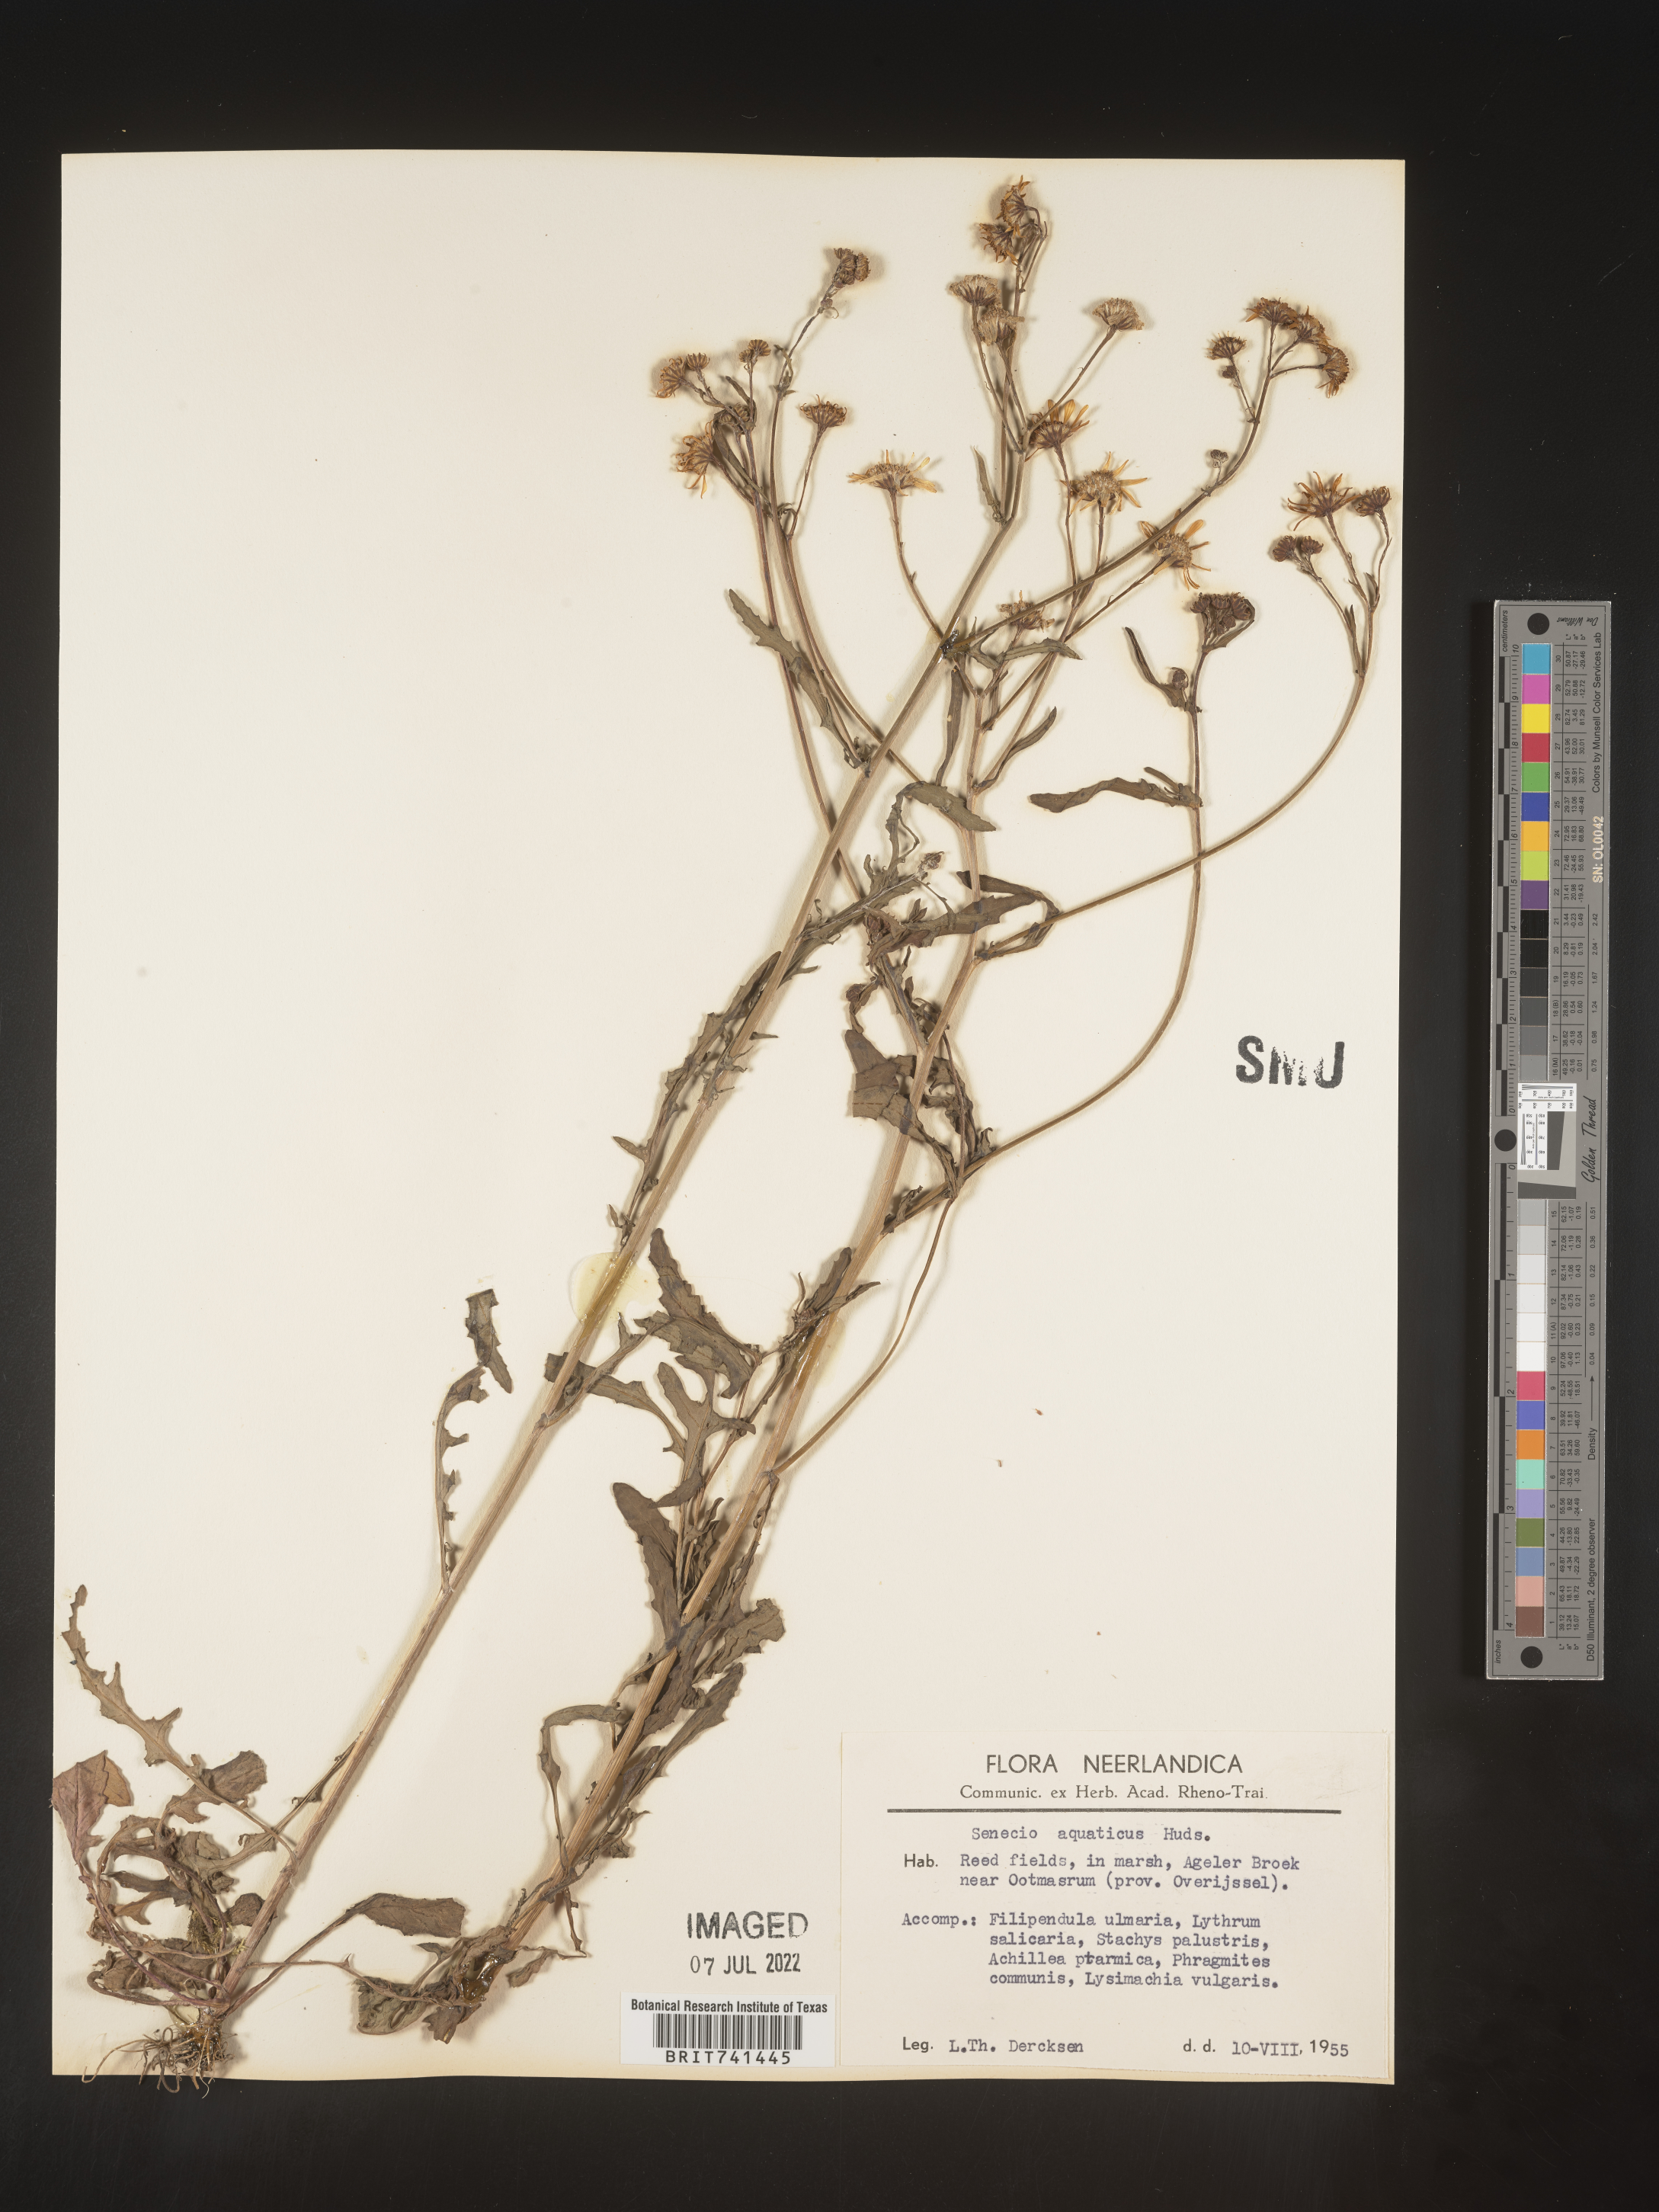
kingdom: Plantae
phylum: Tracheophyta
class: Magnoliopsida
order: Asterales
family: Asteraceae
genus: Senecio
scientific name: Senecio
